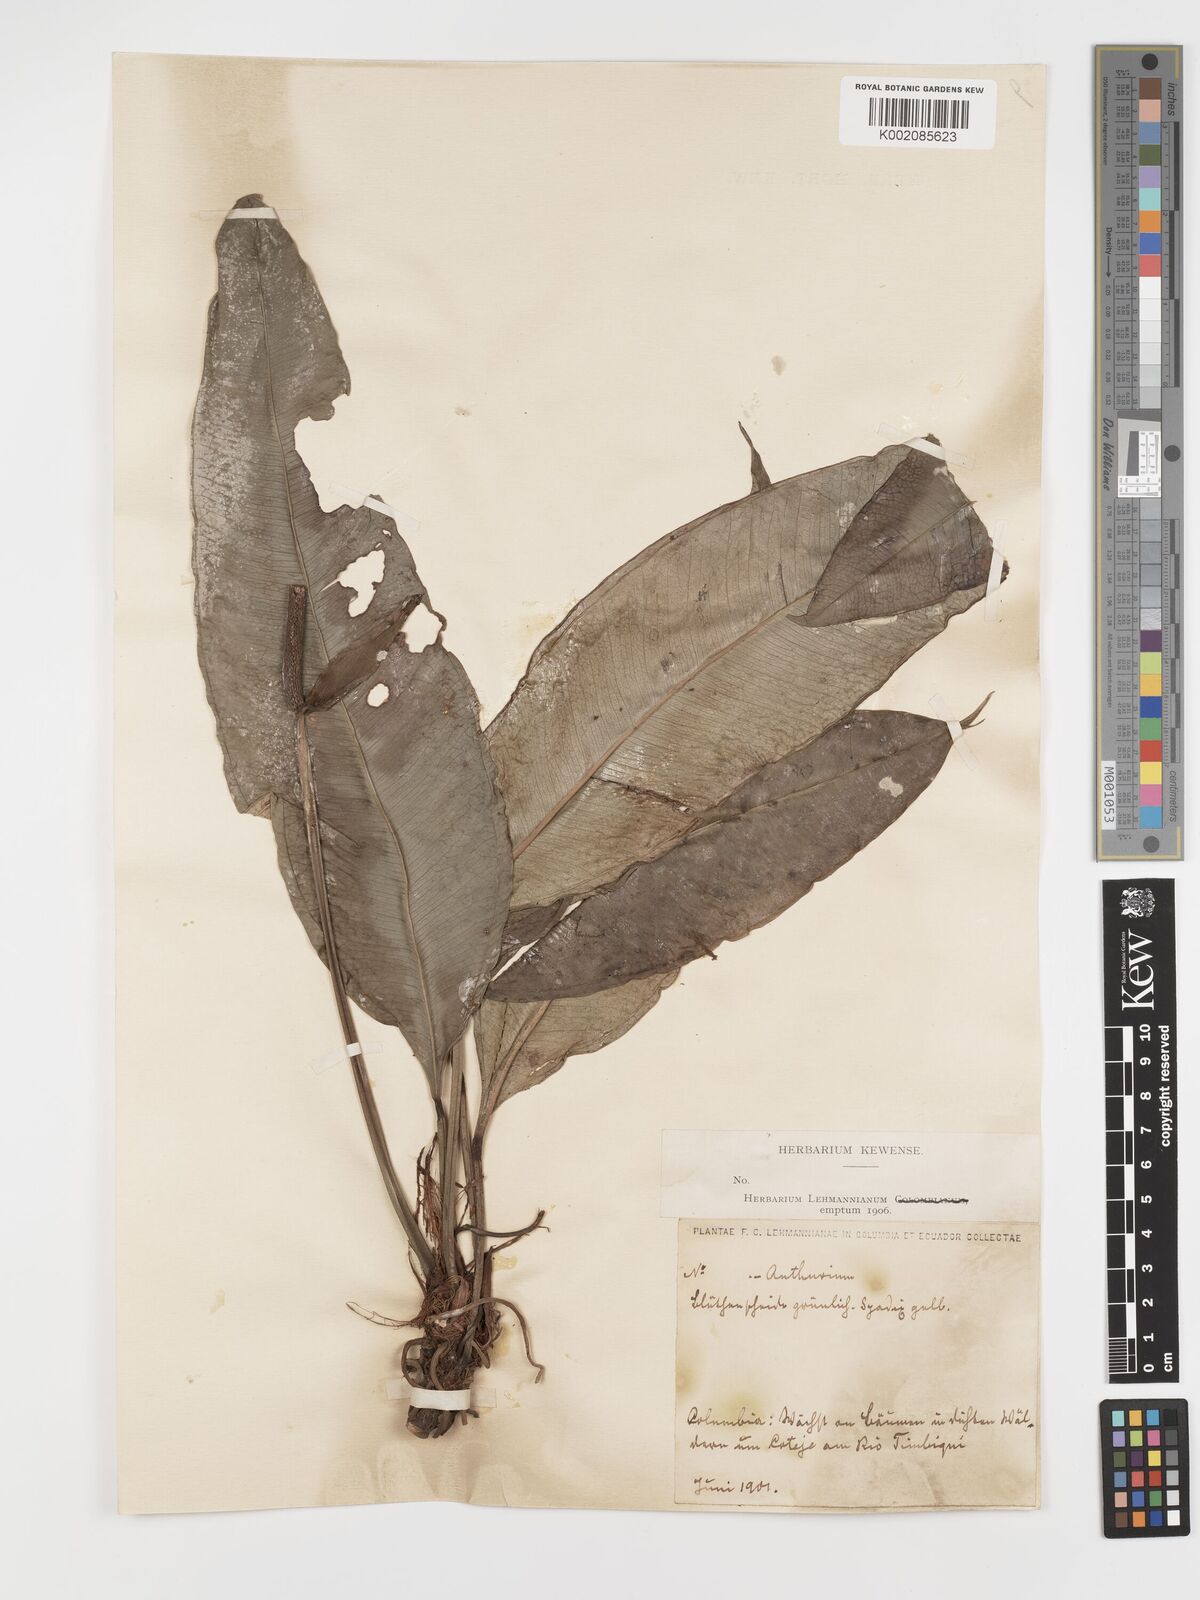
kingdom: Plantae
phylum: Tracheophyta
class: Liliopsida
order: Alismatales
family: Araceae
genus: Anthurium
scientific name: Anthurium aureum
